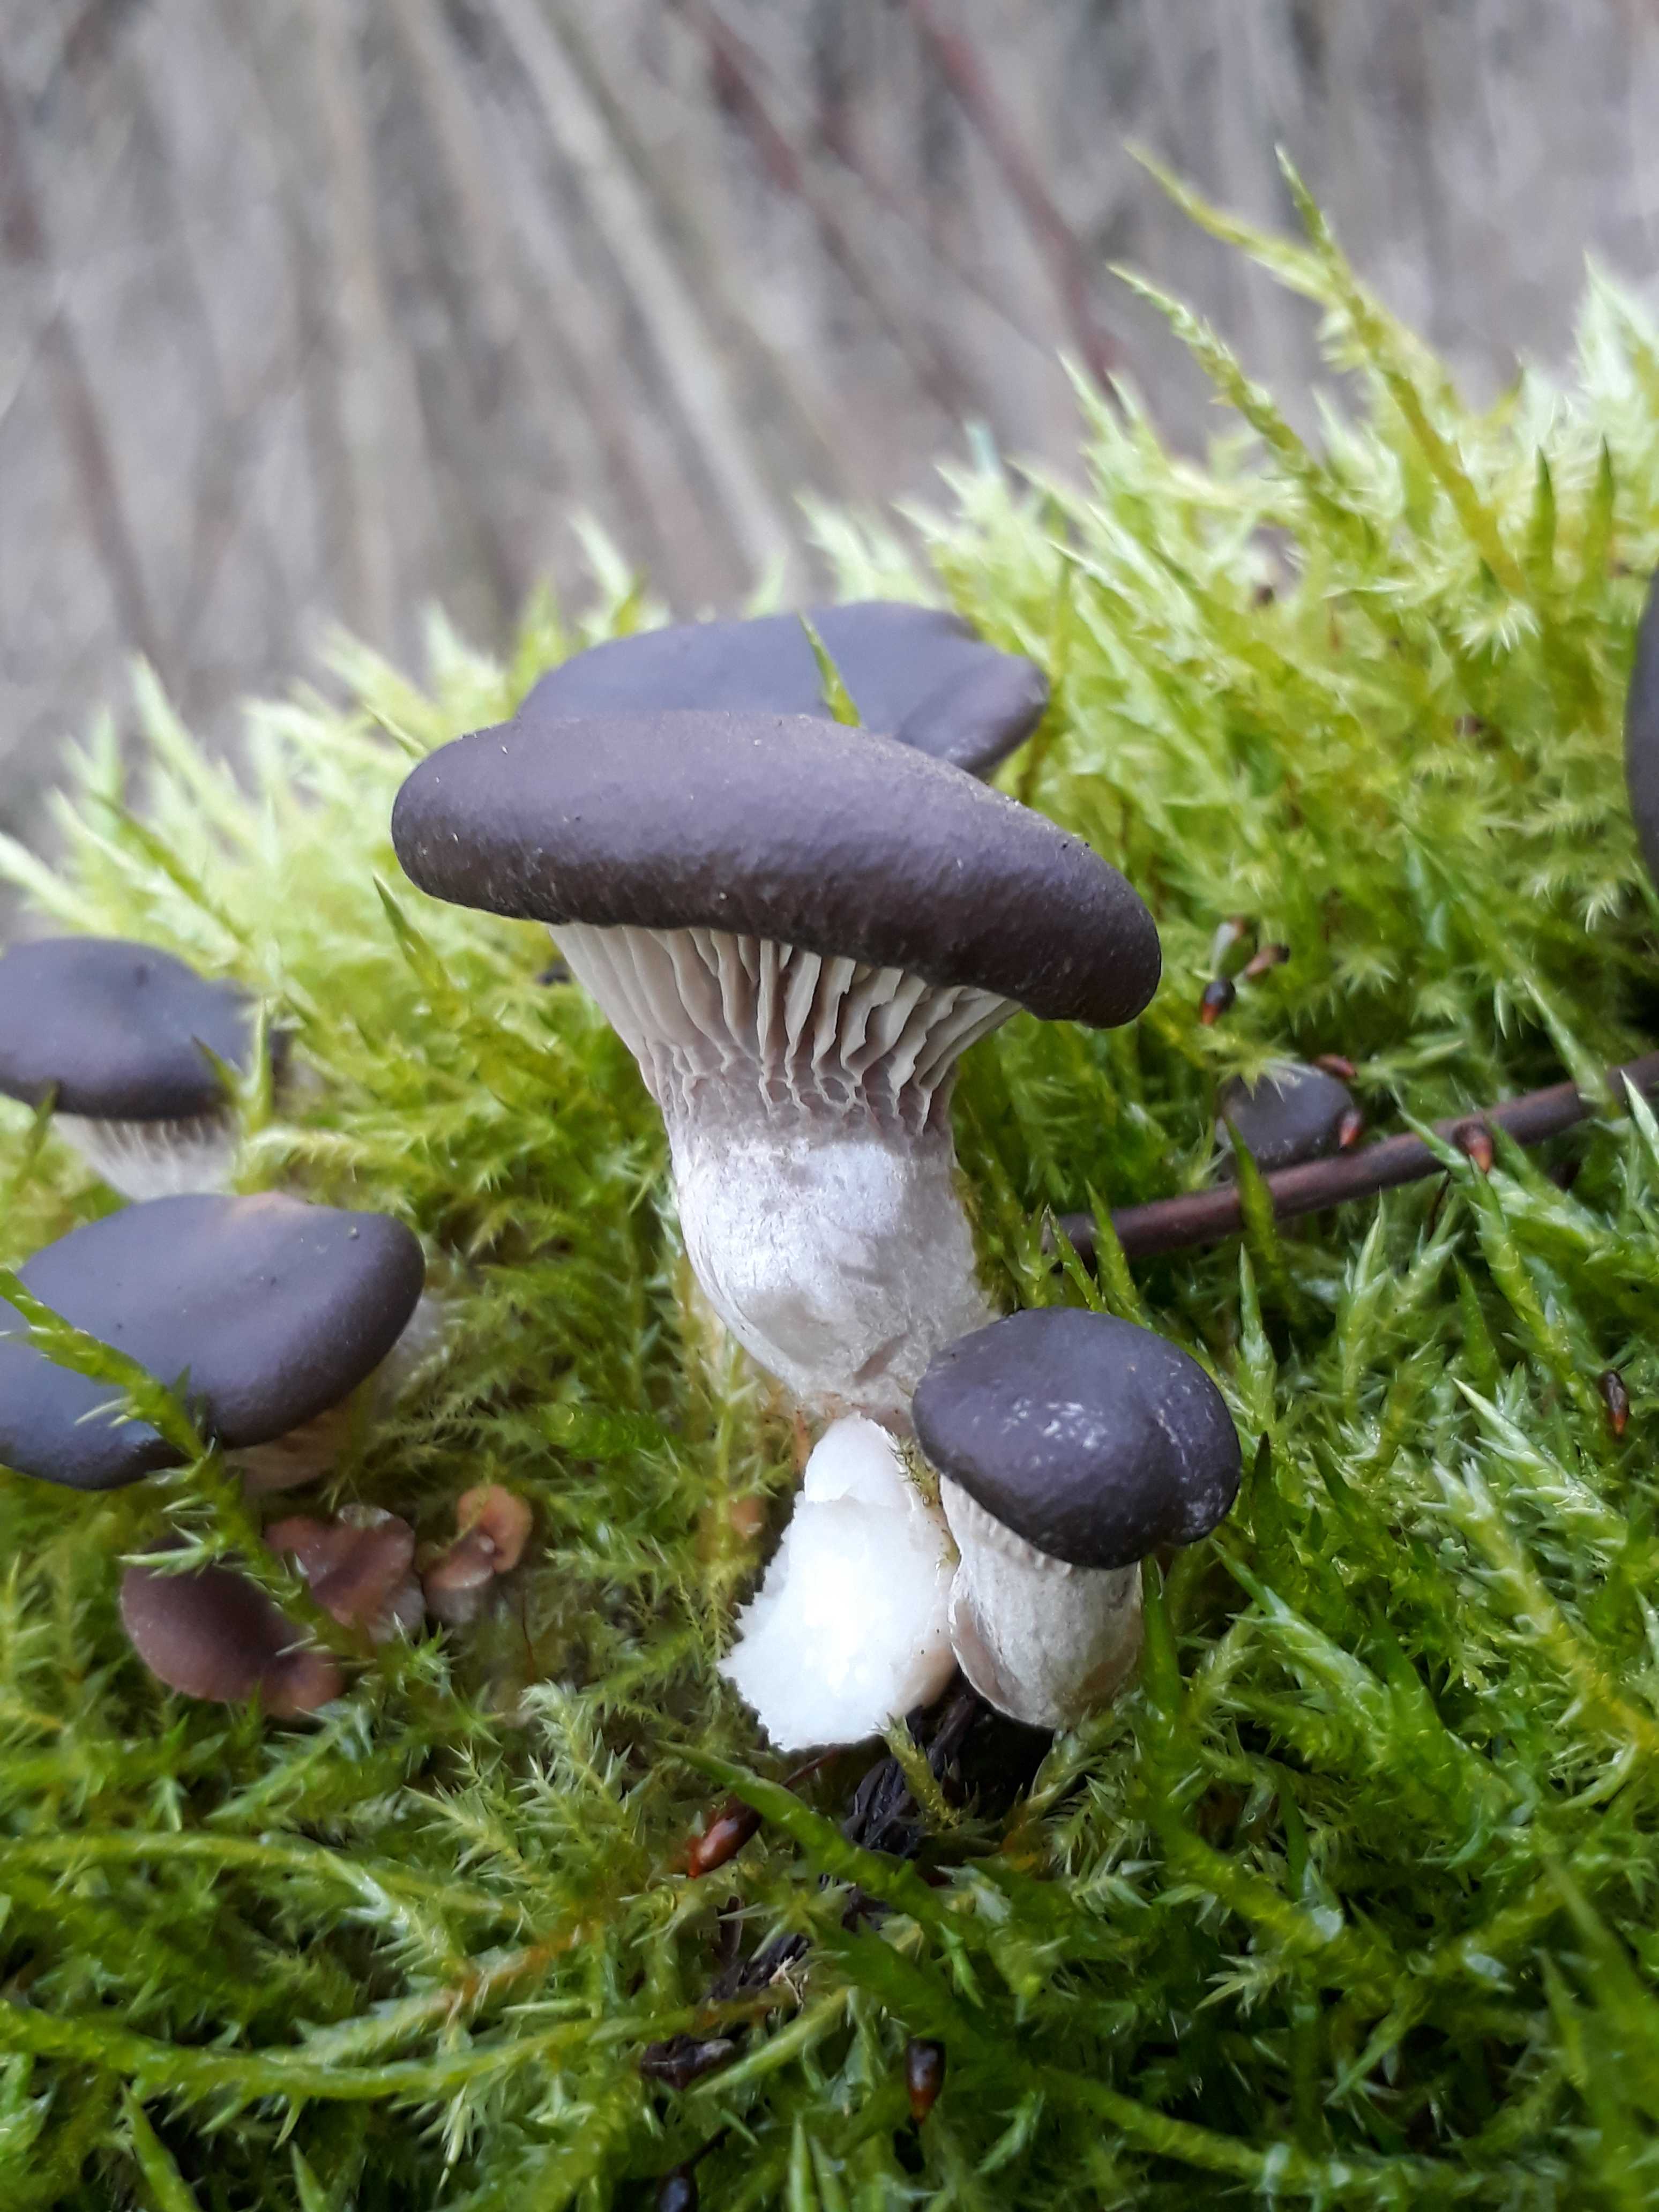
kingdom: Fungi
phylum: Basidiomycota
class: Agaricomycetes
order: Agaricales
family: Pleurotaceae
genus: Pleurotus
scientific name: Pleurotus ostreatus
